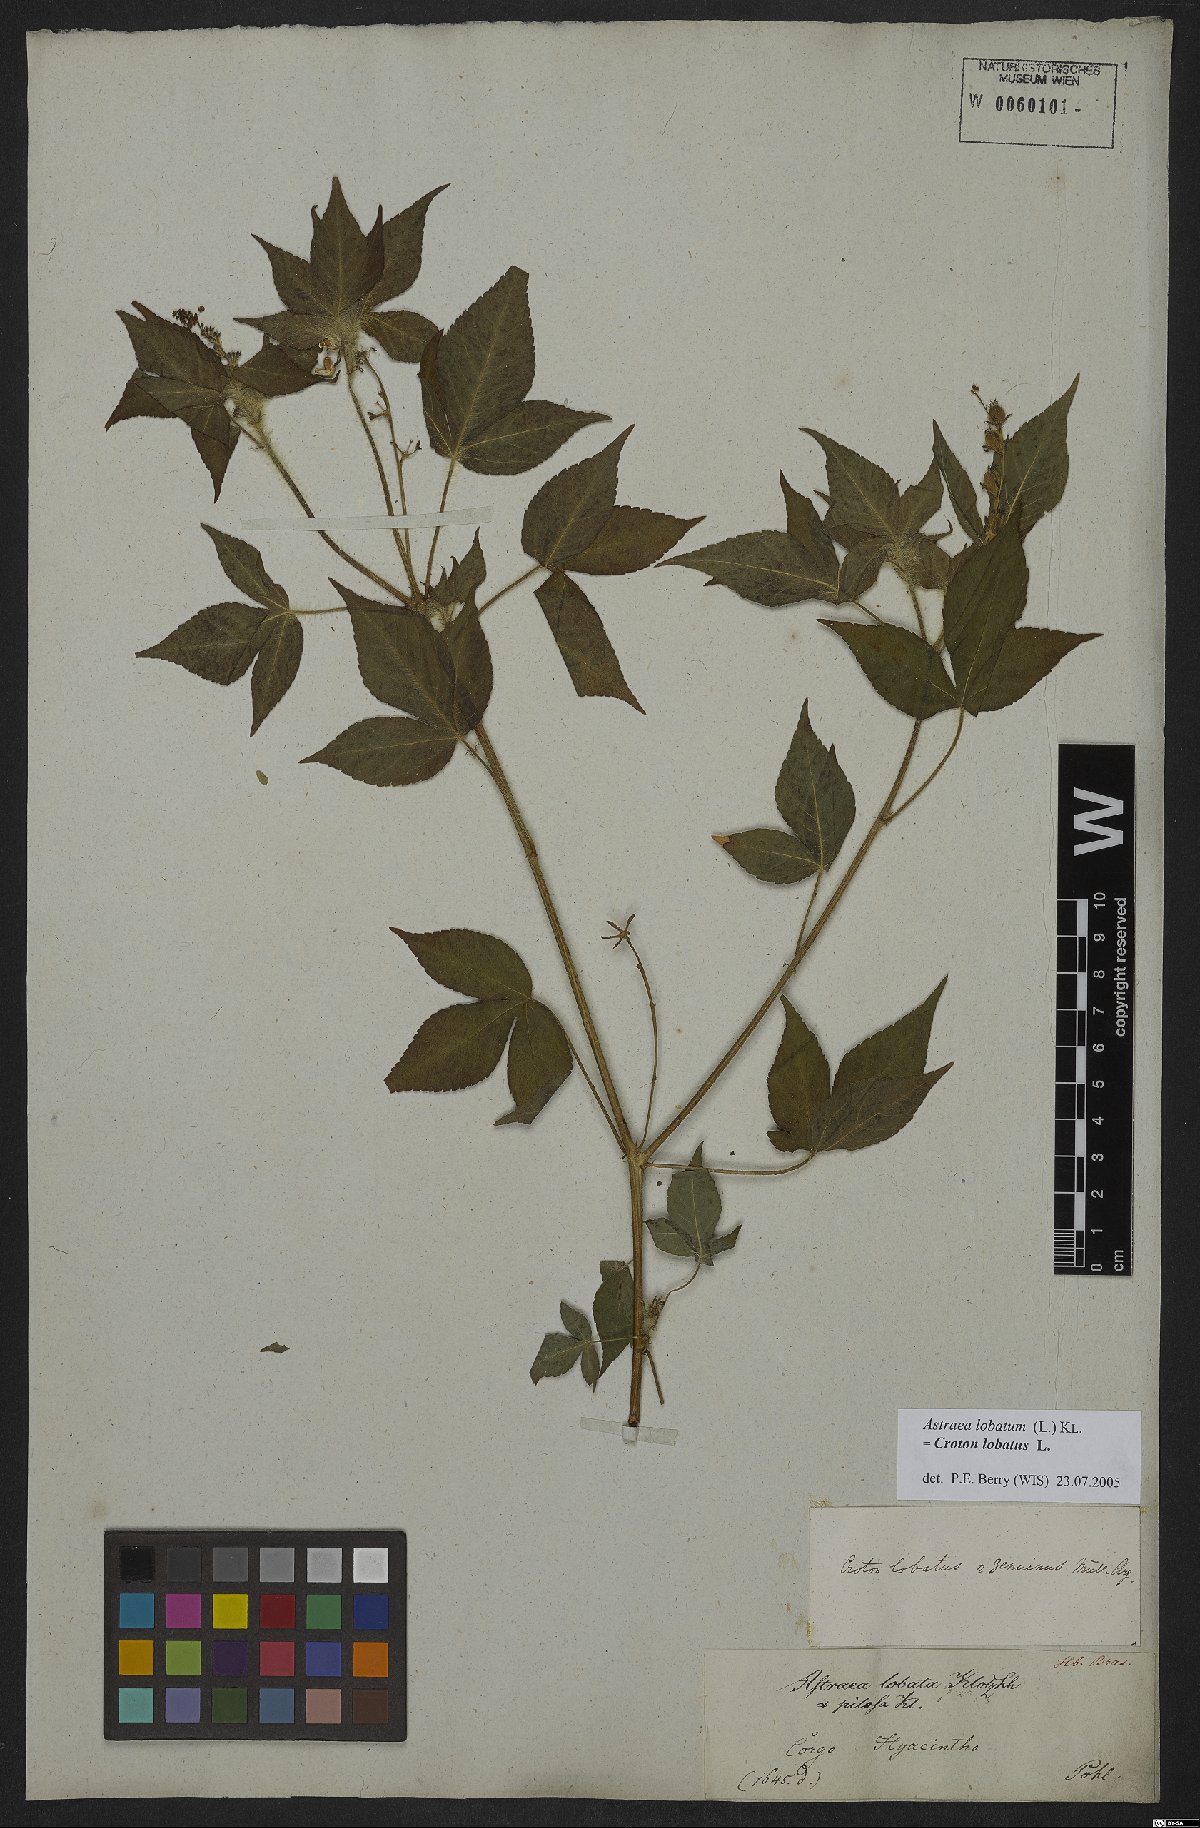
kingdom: Plantae
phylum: Tracheophyta
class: Magnoliopsida
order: Malpighiales
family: Euphorbiaceae
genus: Croton
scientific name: Croton lobatus
